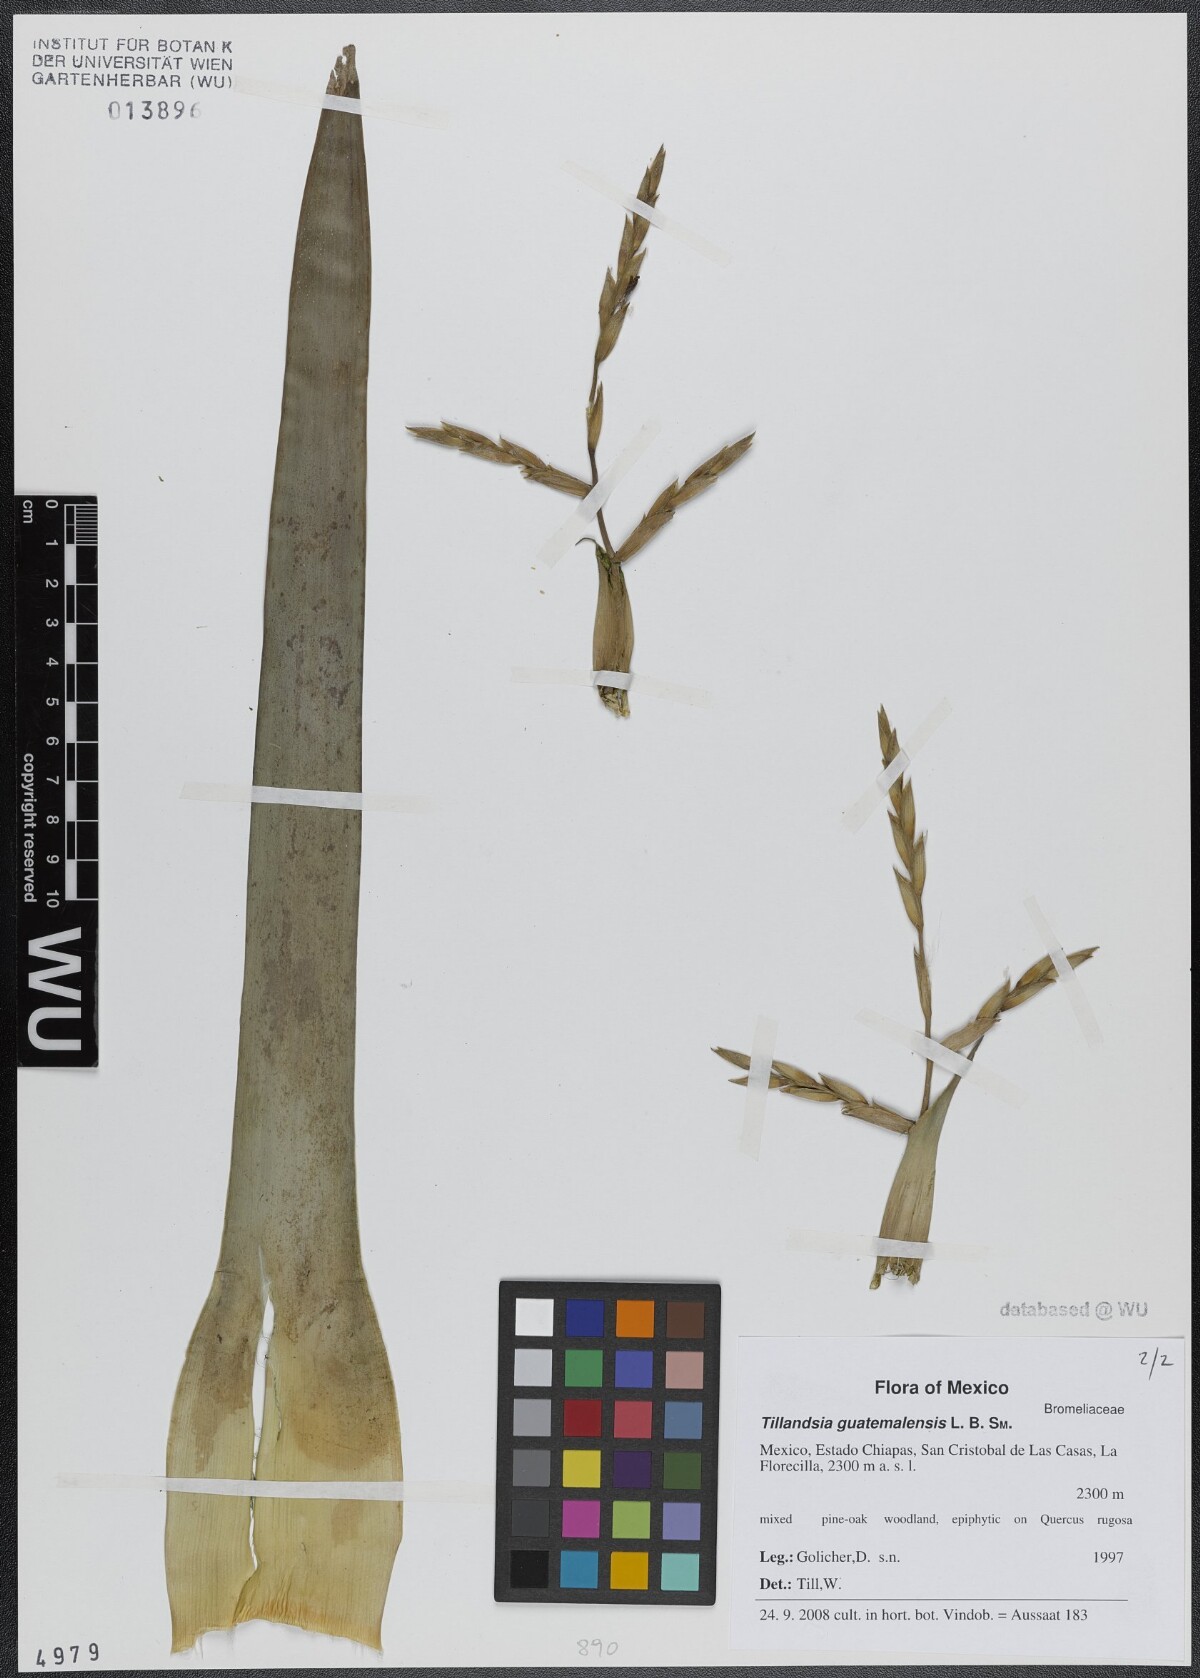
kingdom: Plantae
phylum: Tracheophyta
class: Liliopsida
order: Poales
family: Bromeliaceae
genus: Tillandsia
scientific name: Tillandsia guatemalensis
